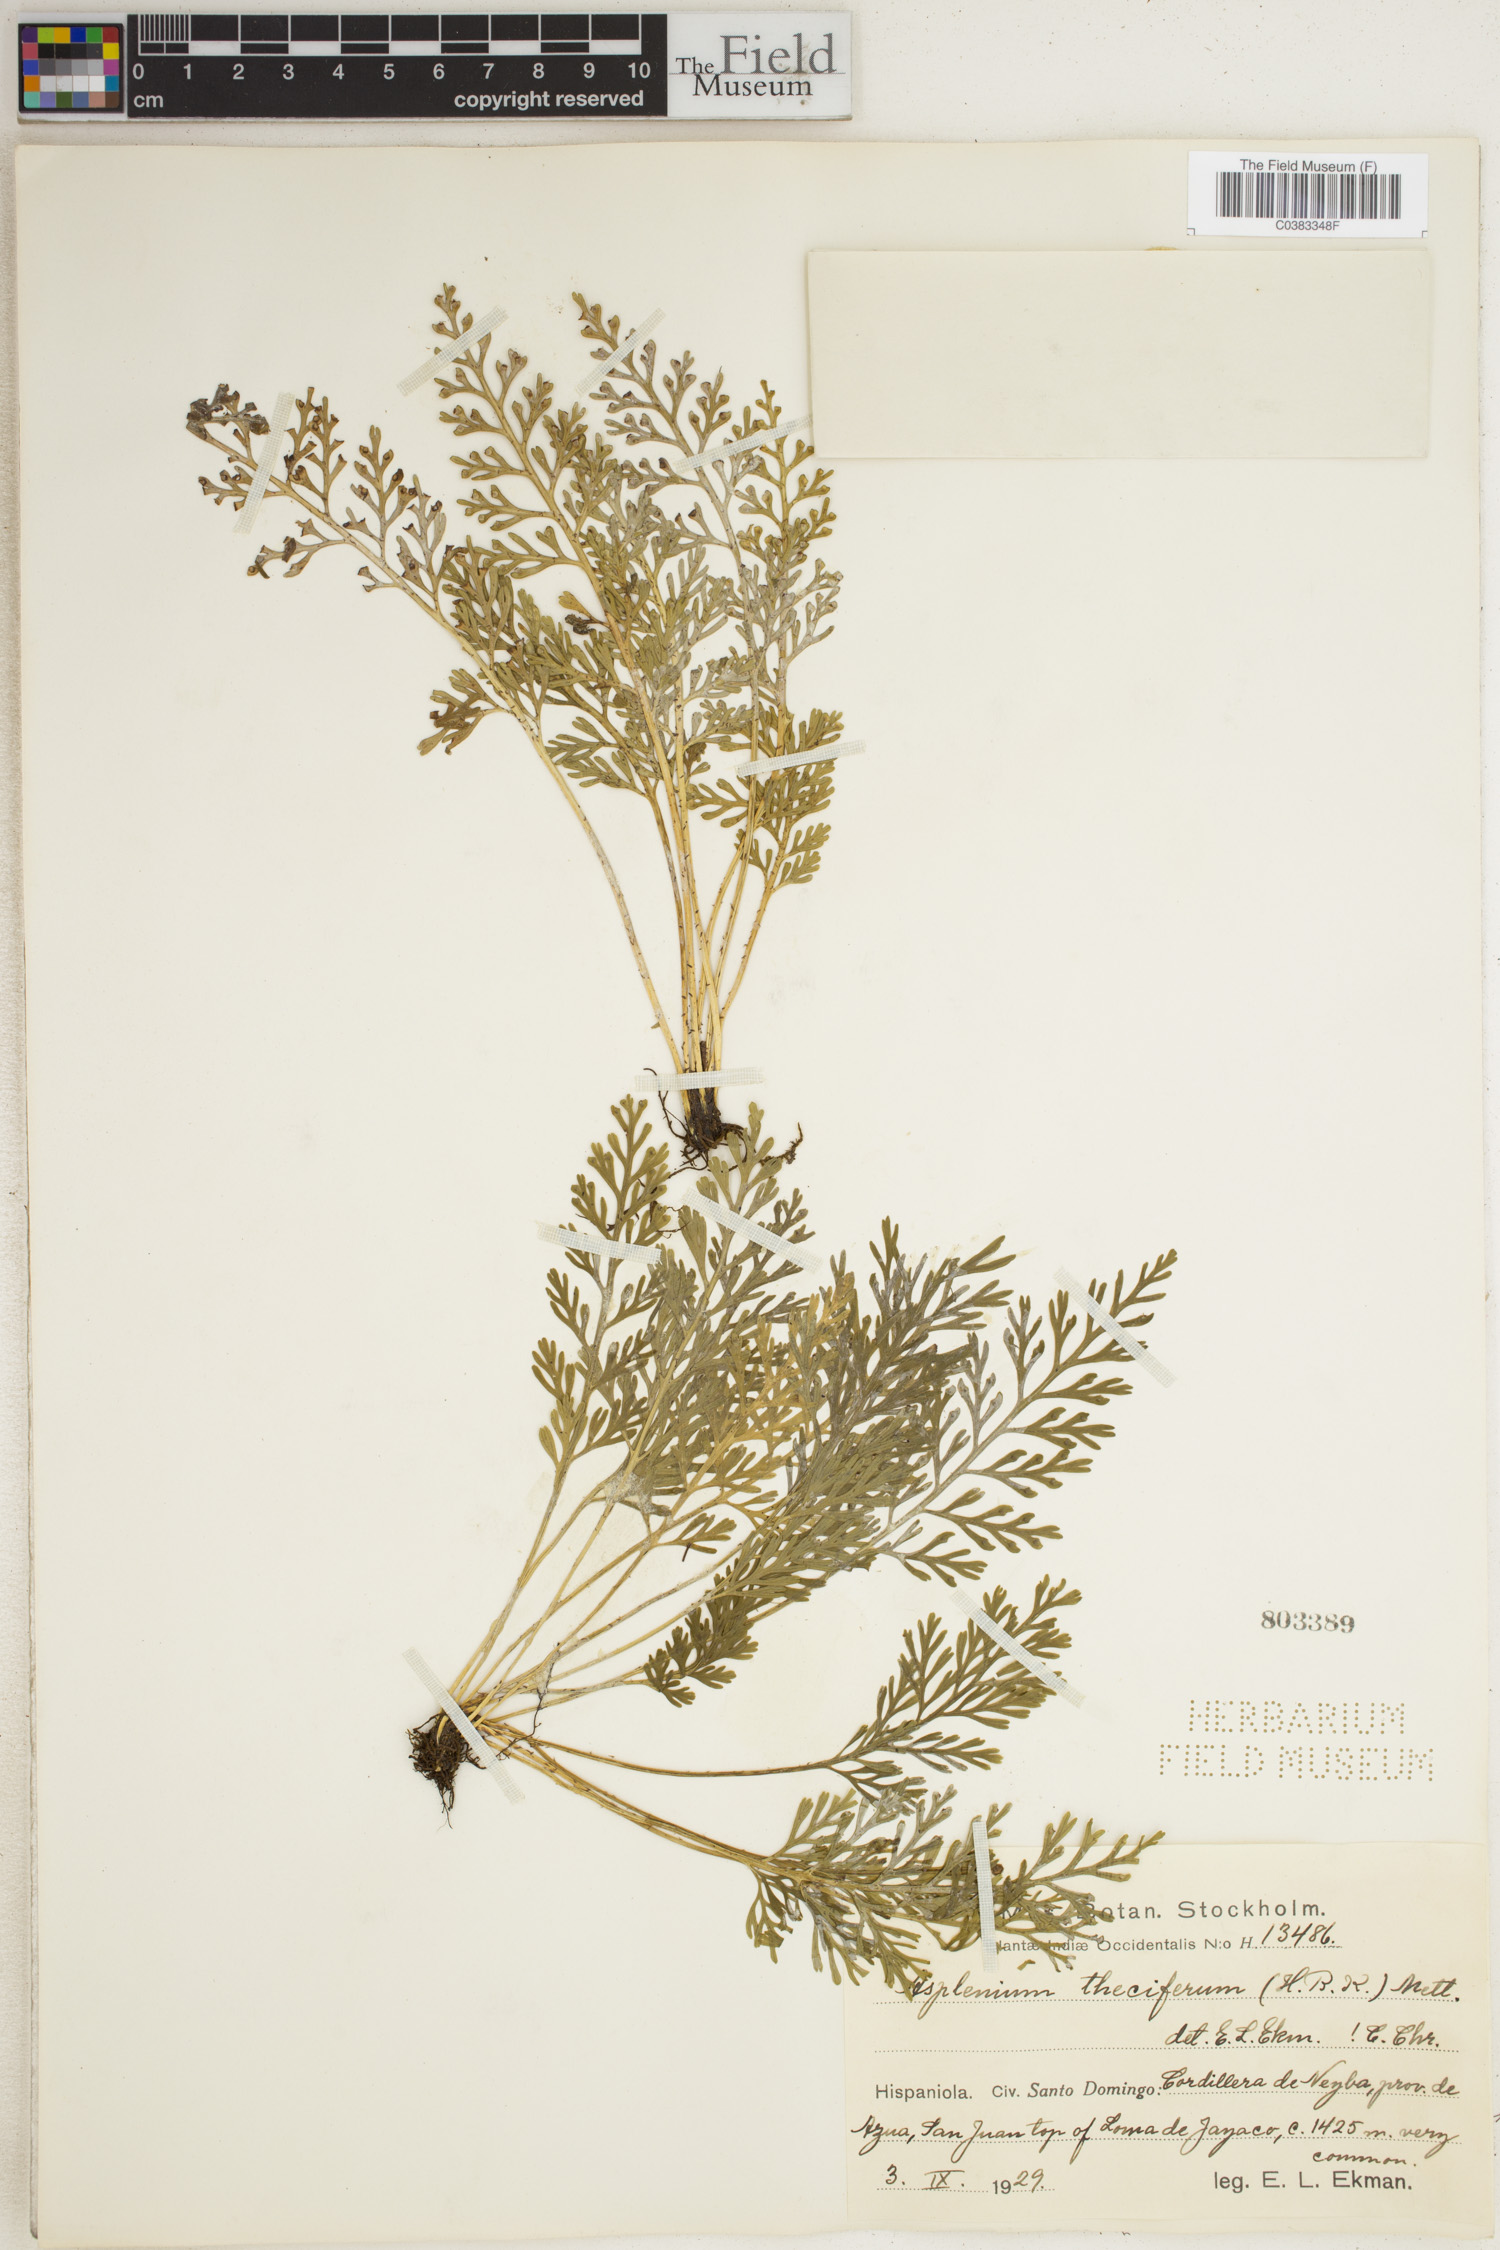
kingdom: Plantae
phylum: Tracheophyta
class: Polypodiopsida
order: Polypodiales
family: Aspleniaceae
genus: Asplenium
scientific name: Asplenium theciferum
